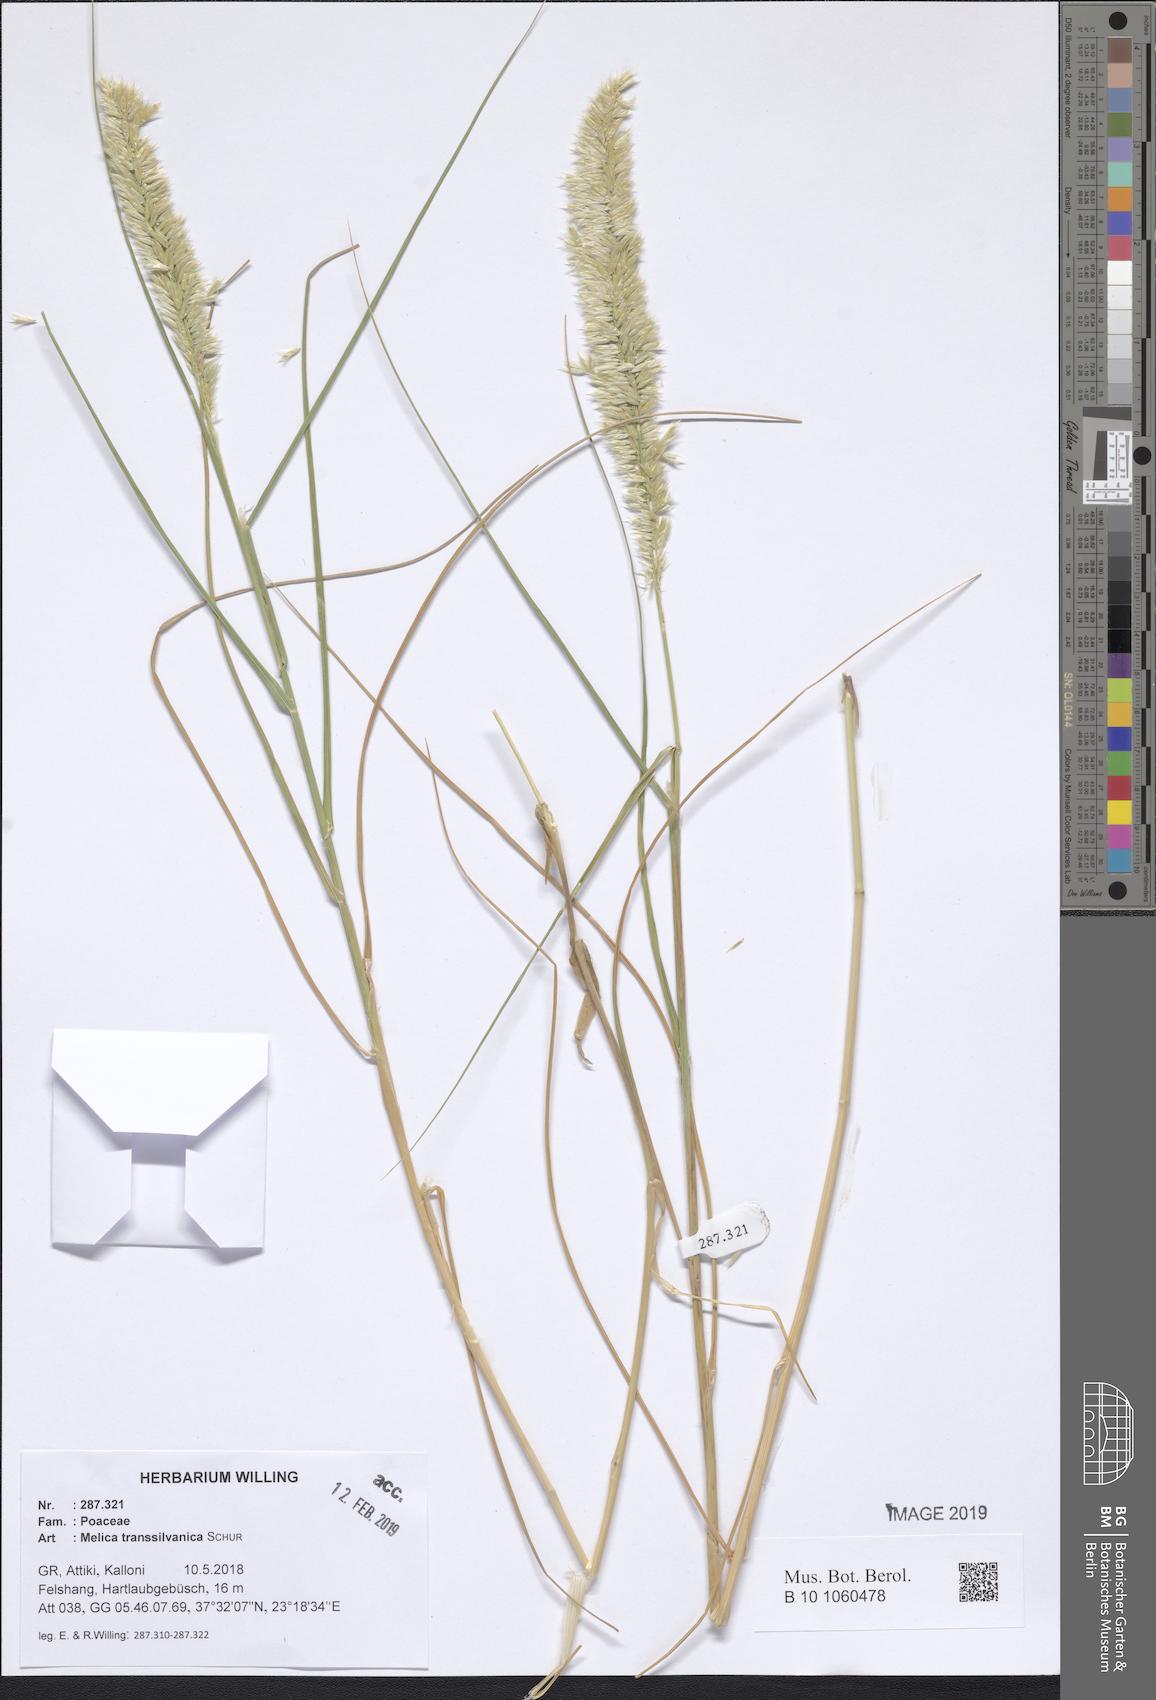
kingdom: Plantae
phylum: Tracheophyta
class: Liliopsida
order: Poales
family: Poaceae
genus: Melica
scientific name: Melica transsilvanica
